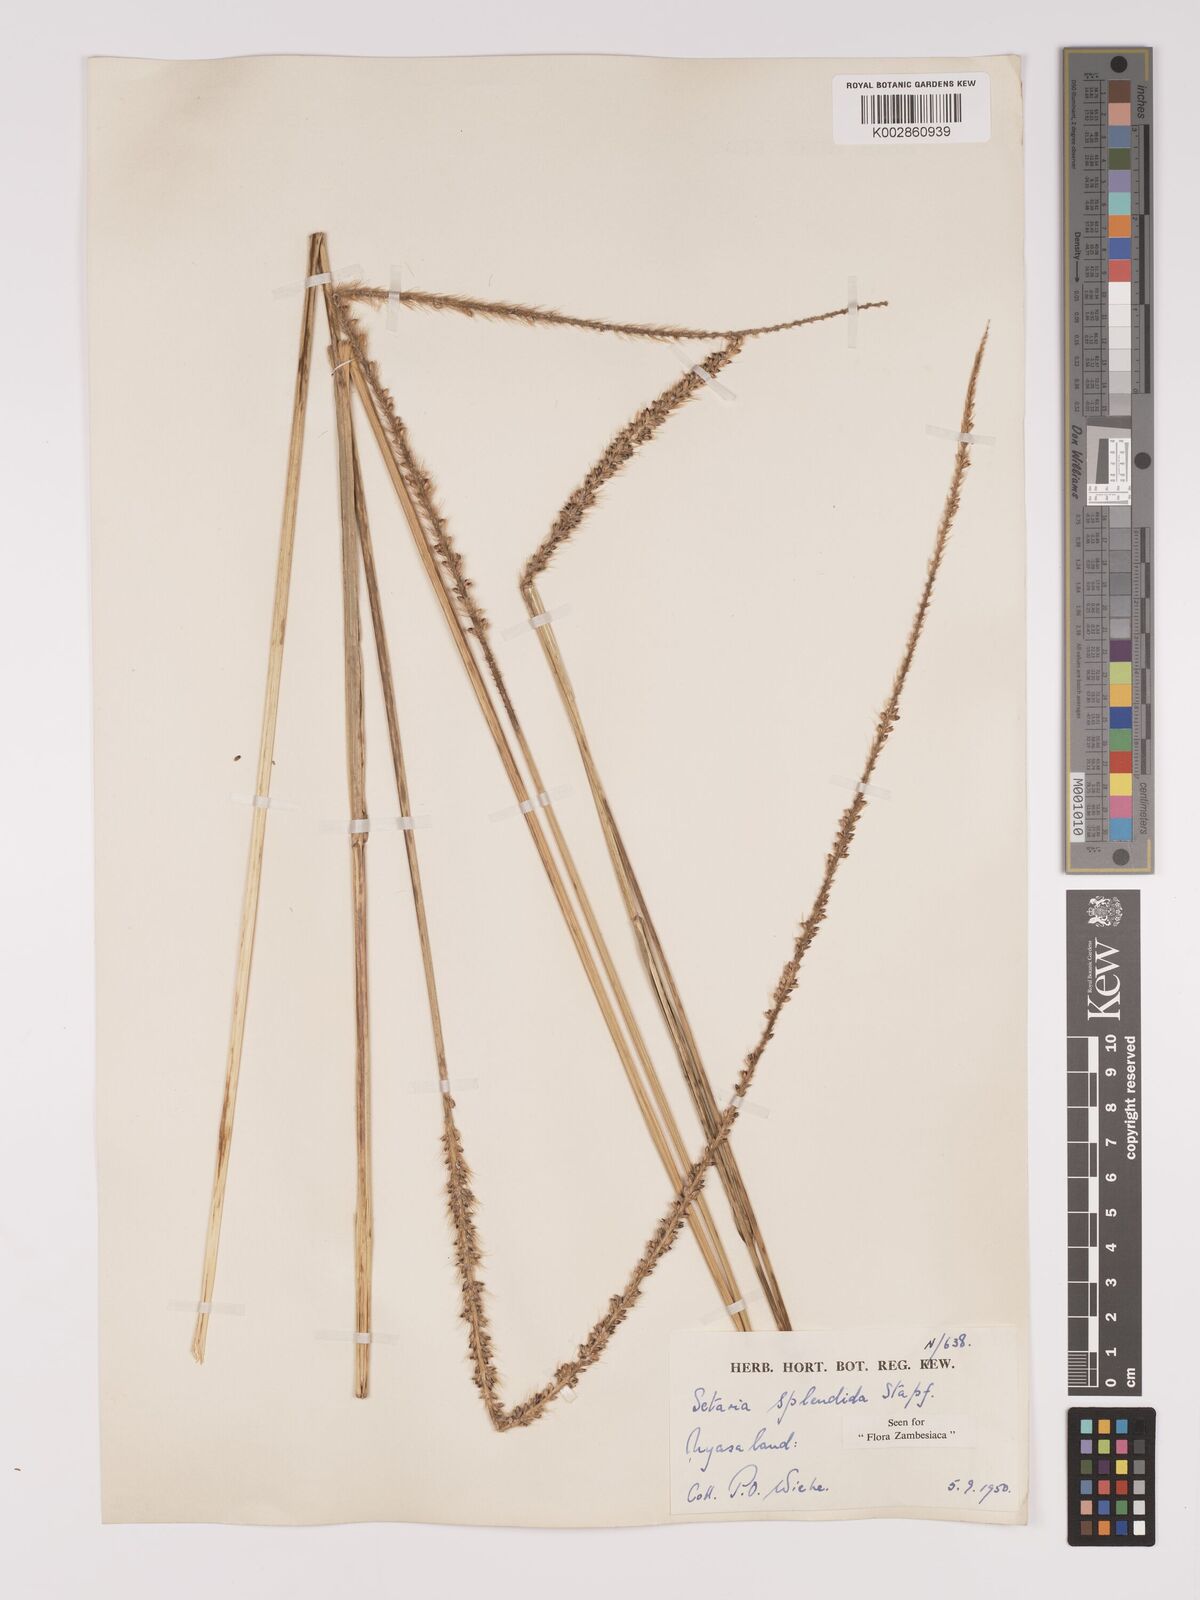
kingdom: Plantae
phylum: Tracheophyta
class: Liliopsida
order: Poales
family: Poaceae
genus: Setaria
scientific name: Setaria sphacelata
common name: African bristlegrass
